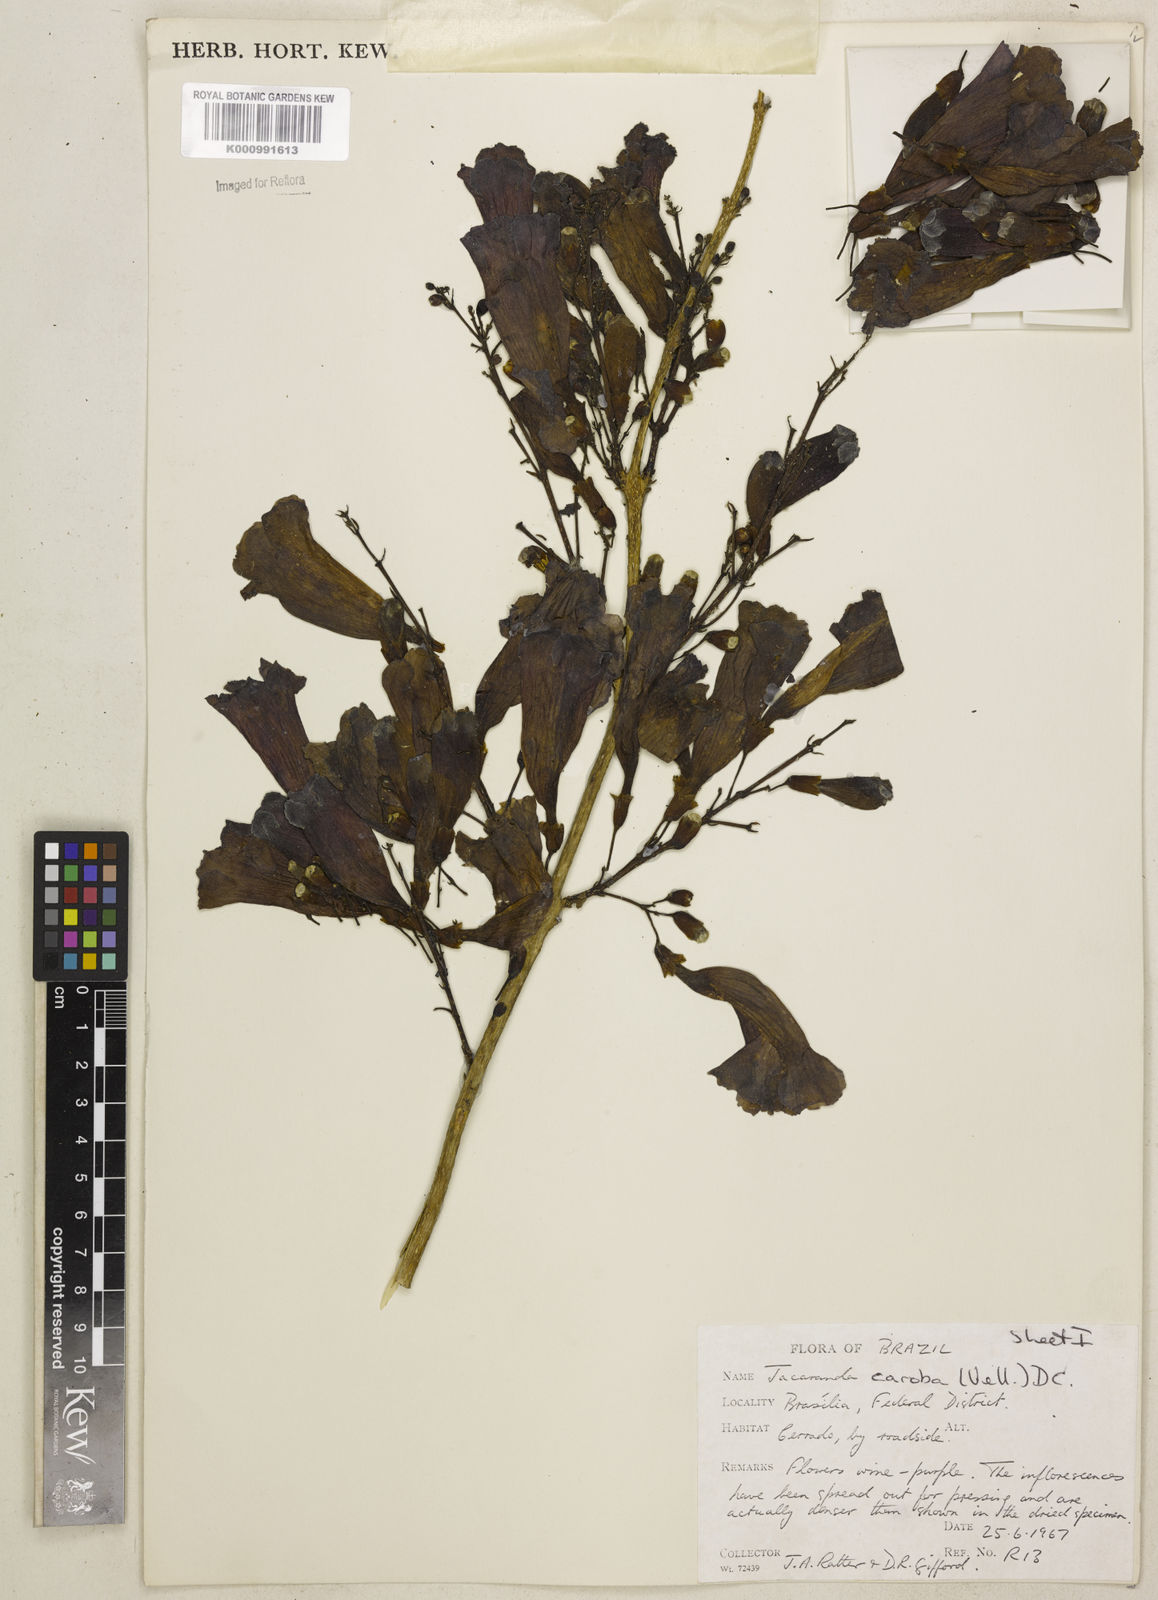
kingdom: Plantae
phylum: Tracheophyta
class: Magnoliopsida
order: Lamiales
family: Bignoniaceae
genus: Jacaranda
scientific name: Jacaranda caroba
